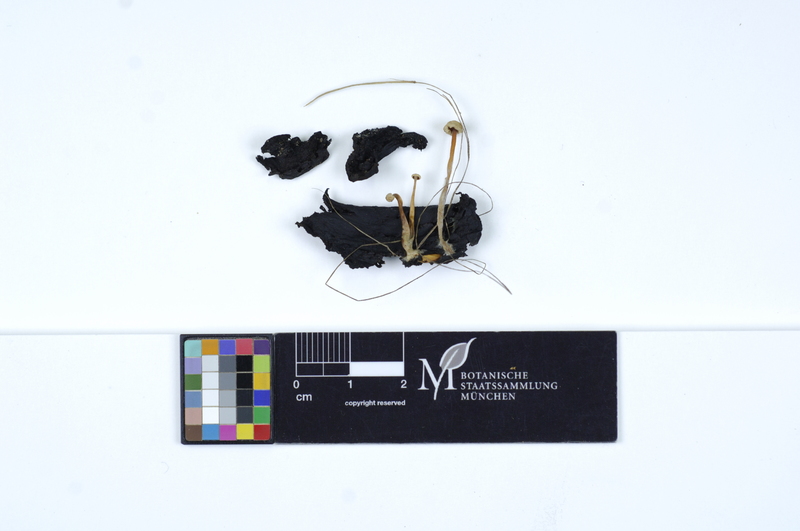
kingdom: Fungi
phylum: Basidiomycota
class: Agaricomycetes
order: Agaricales
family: Tricholomataceae
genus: Collybia
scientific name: Collybia cookei
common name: Splitpea shanklet
